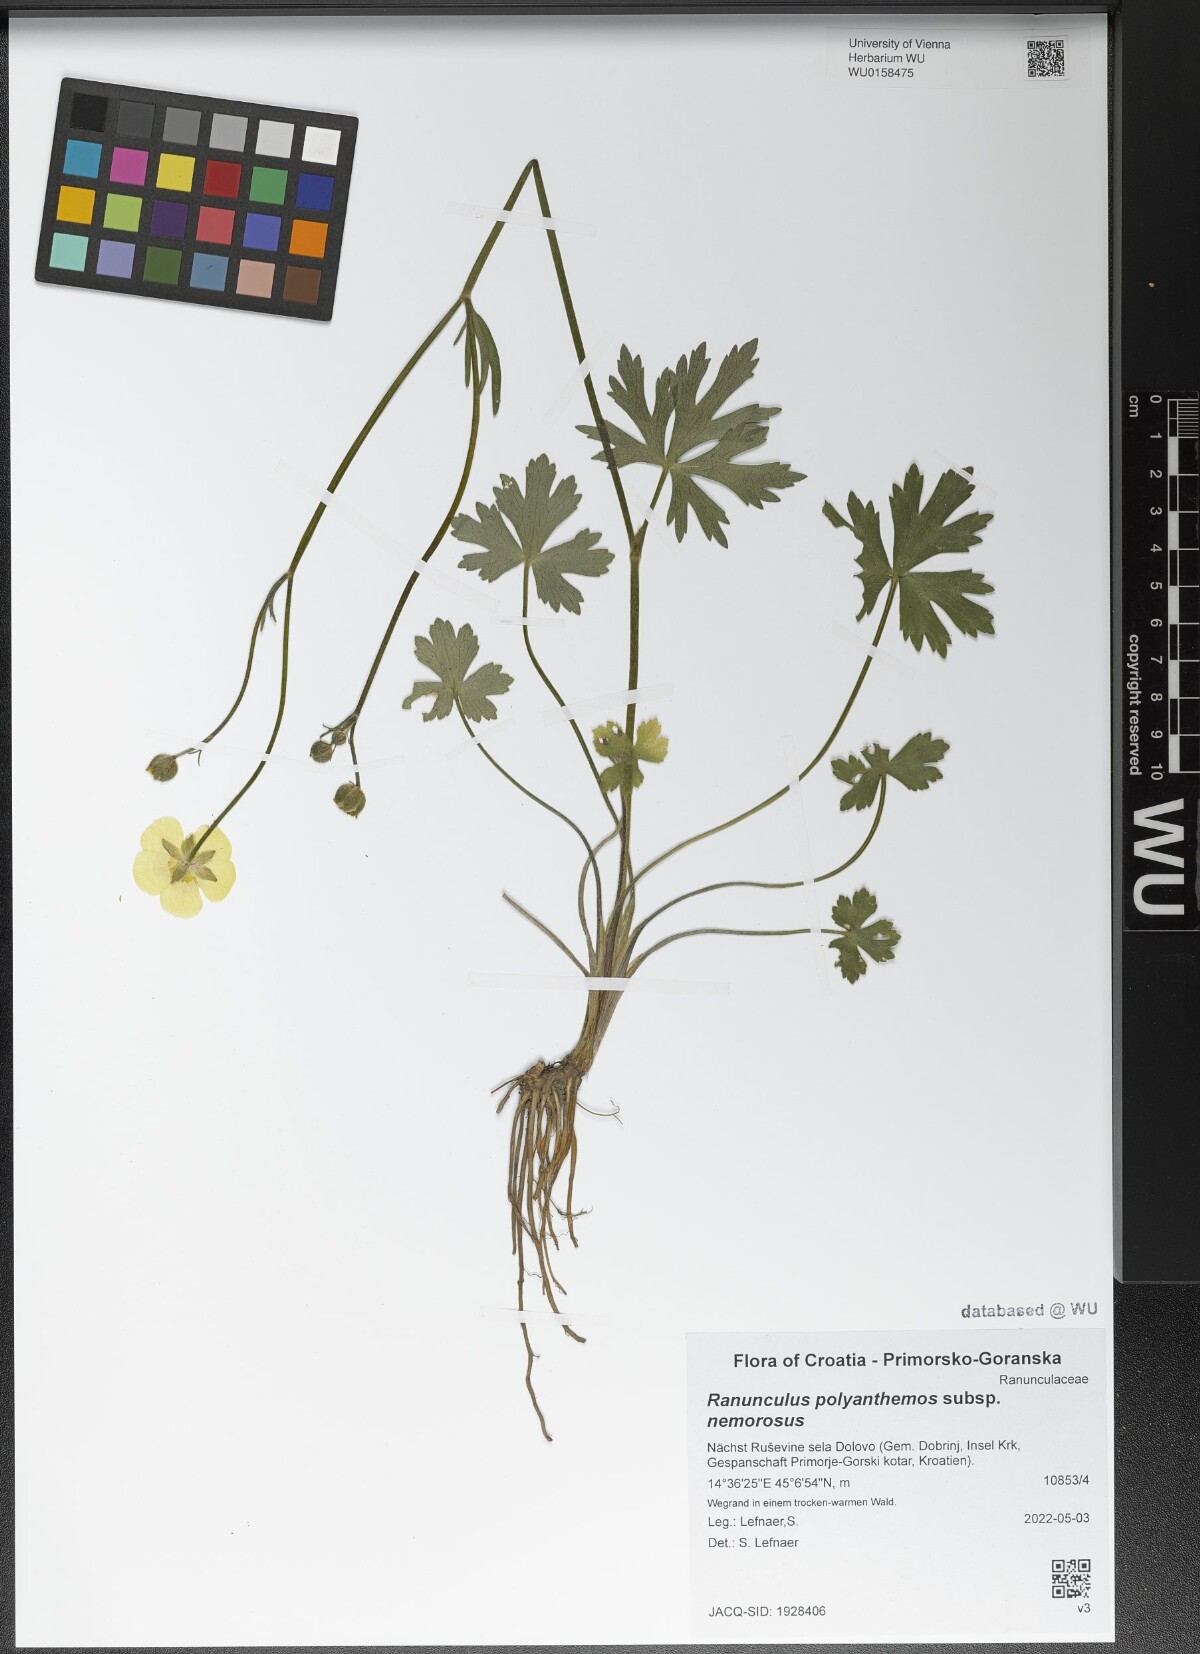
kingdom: Plantae
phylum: Tracheophyta
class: Magnoliopsida
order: Ranunculales
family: Ranunculaceae
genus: Ranunculus
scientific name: Ranunculus polyanthemos
